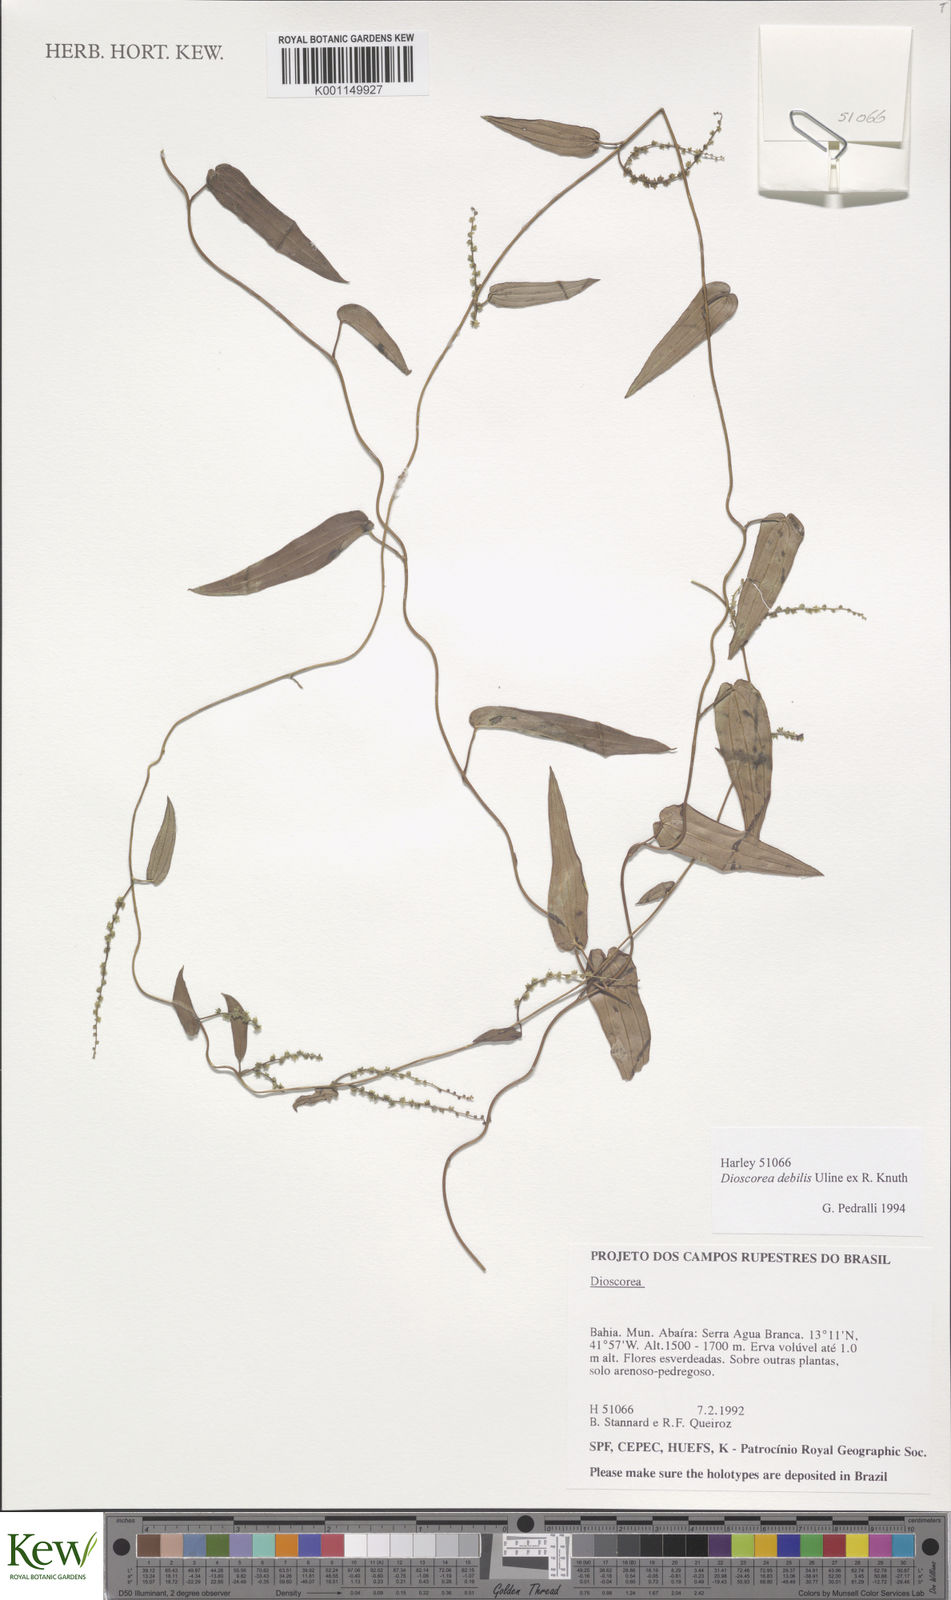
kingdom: Plantae
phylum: Tracheophyta
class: Liliopsida
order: Dioscoreales
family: Dioscoreaceae
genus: Dioscorea
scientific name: Dioscorea debilis
